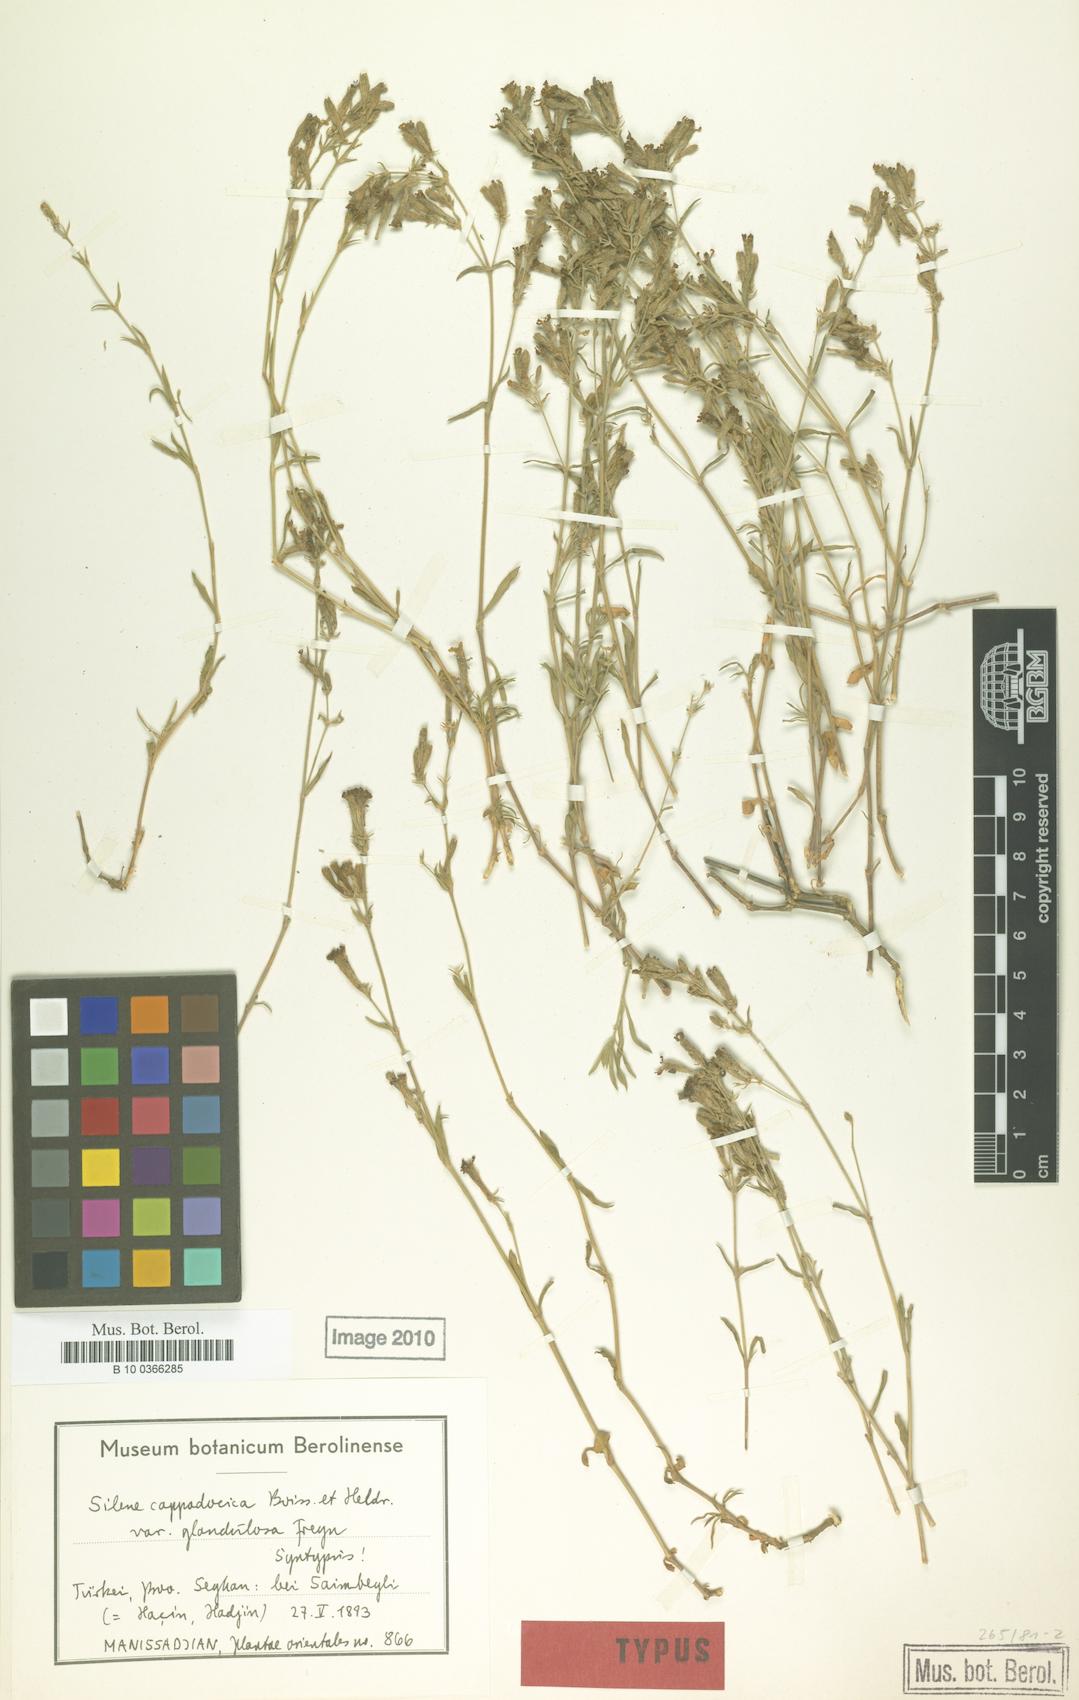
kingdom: Plantae
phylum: Tracheophyta
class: Magnoliopsida
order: Caryophyllales
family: Caryophyllaceae
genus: Silene
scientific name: Silene cappadocica
